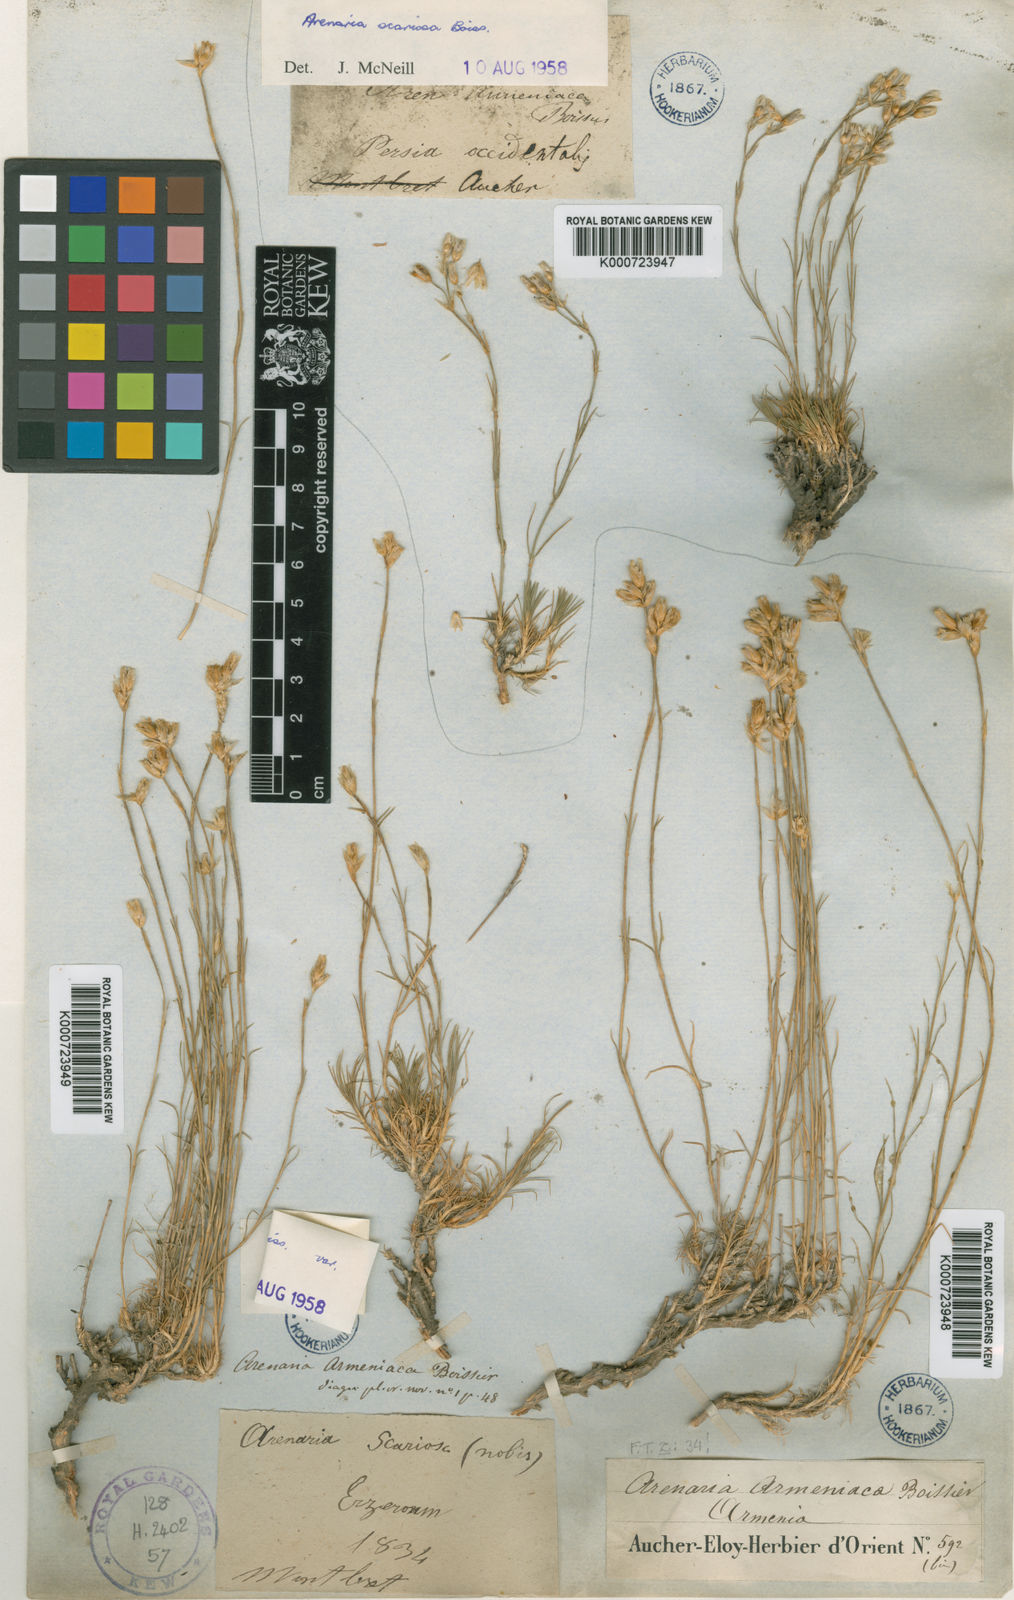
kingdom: Plantae
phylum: Tracheophyta
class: Magnoliopsida
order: Caryophyllales
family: Caryophyllaceae
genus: Eremogone
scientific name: Eremogone armeniaca
